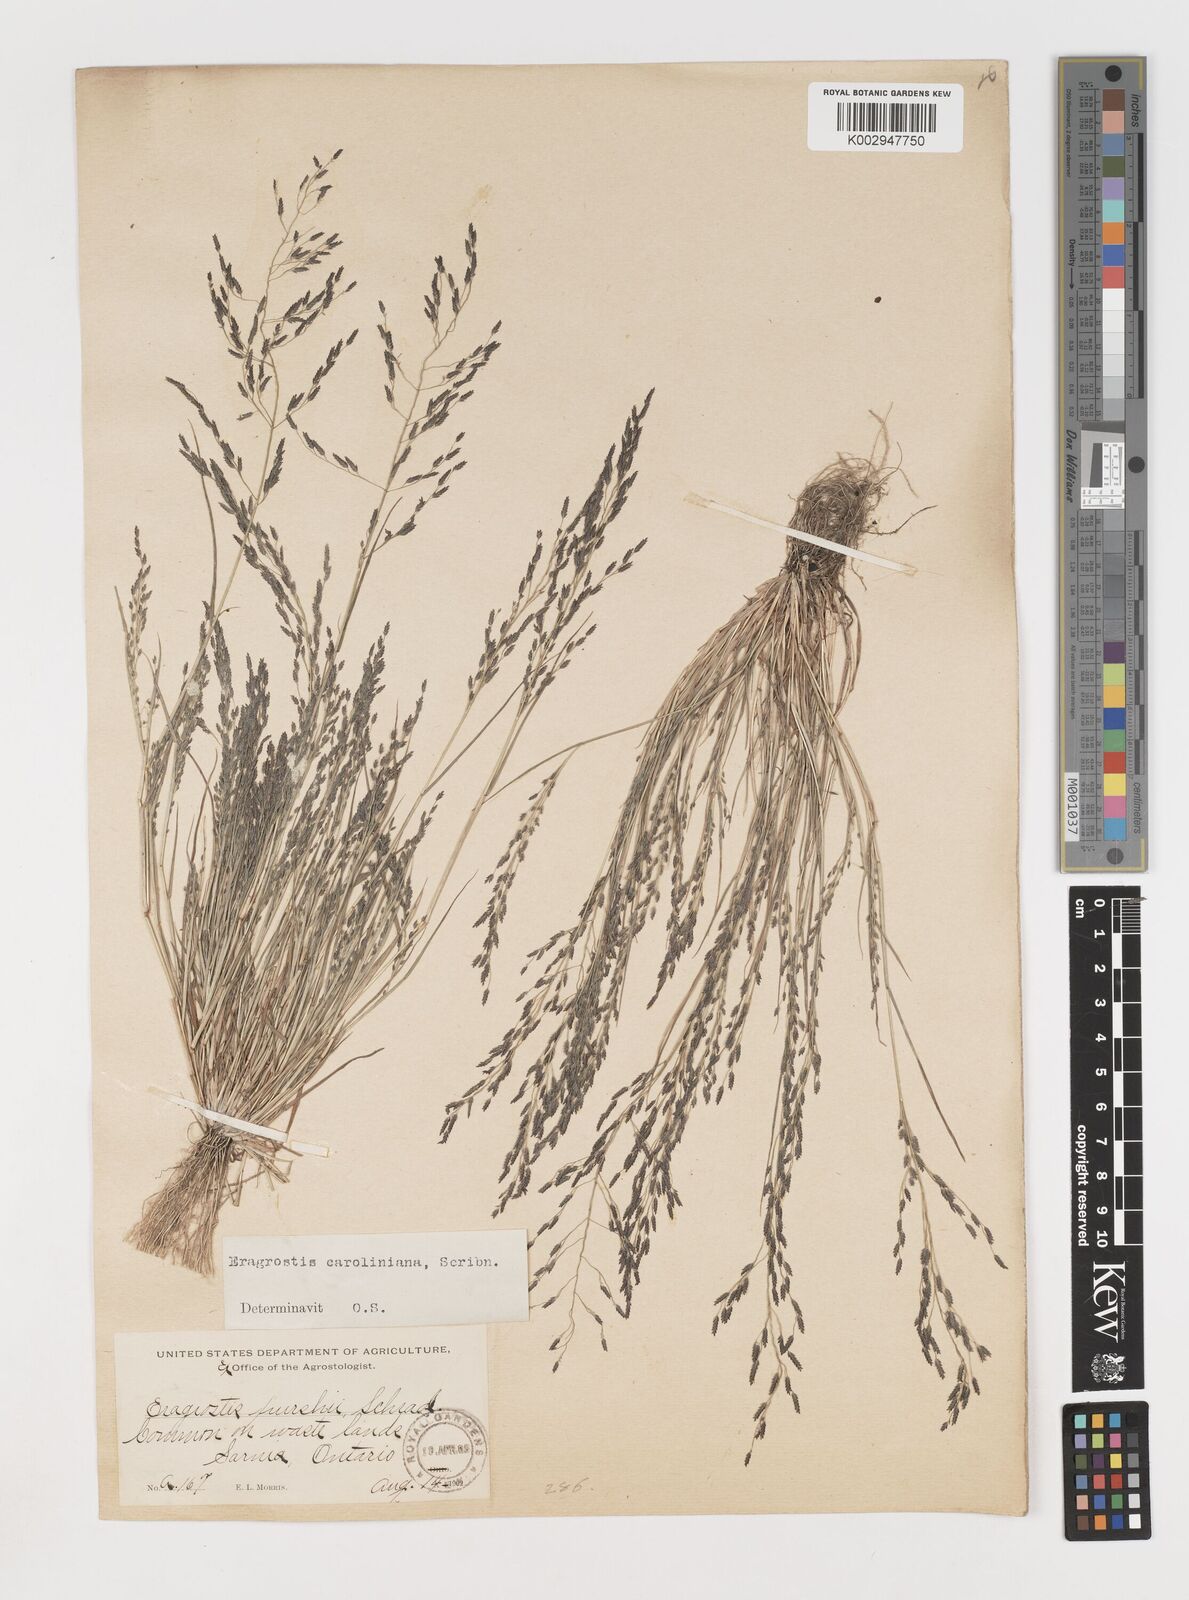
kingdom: Plantae
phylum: Tracheophyta
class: Liliopsida
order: Poales
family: Poaceae
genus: Eragrostis
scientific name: Eragrostis pectinacea
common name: Tufted lovegrass
